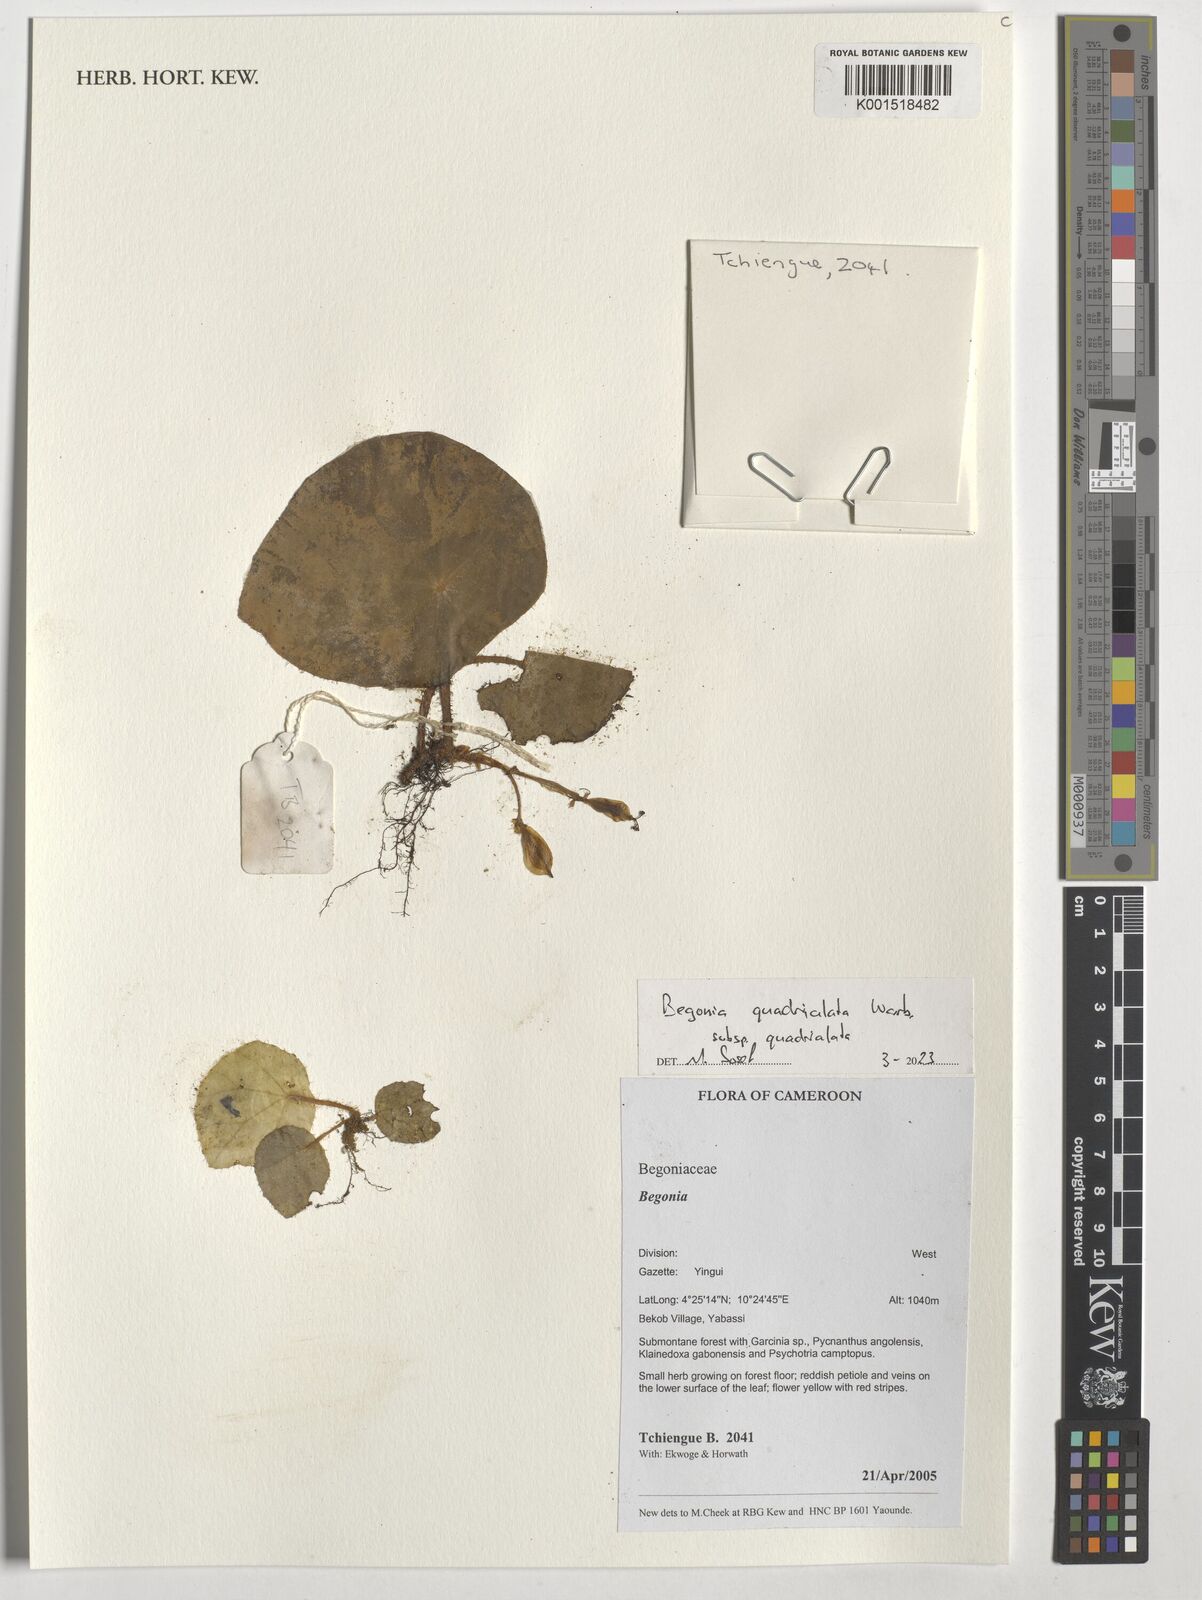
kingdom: Plantae
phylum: Tracheophyta
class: Magnoliopsida
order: Cucurbitales
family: Begoniaceae
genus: Begonia
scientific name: Begonia quadrialata
